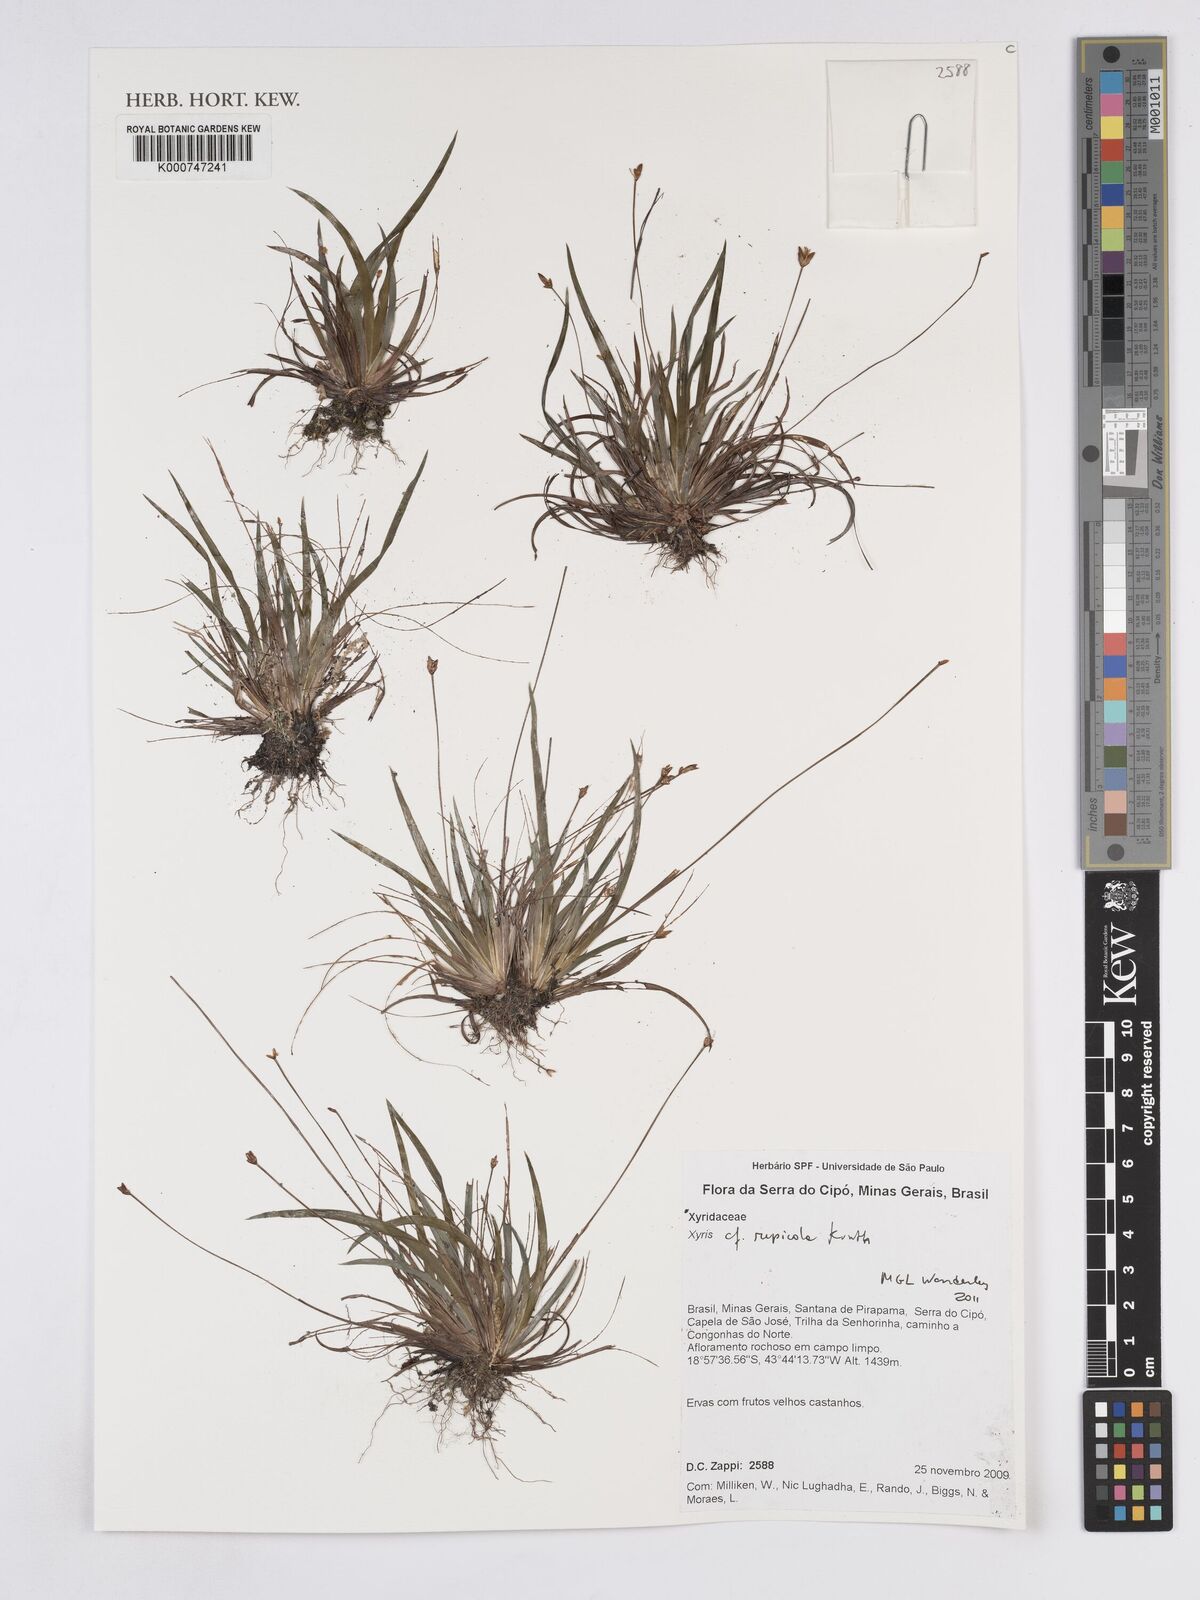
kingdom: Plantae
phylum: Tracheophyta
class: Liliopsida
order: Poales
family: Xyridaceae
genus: Xyris
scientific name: Xyris rupicola
